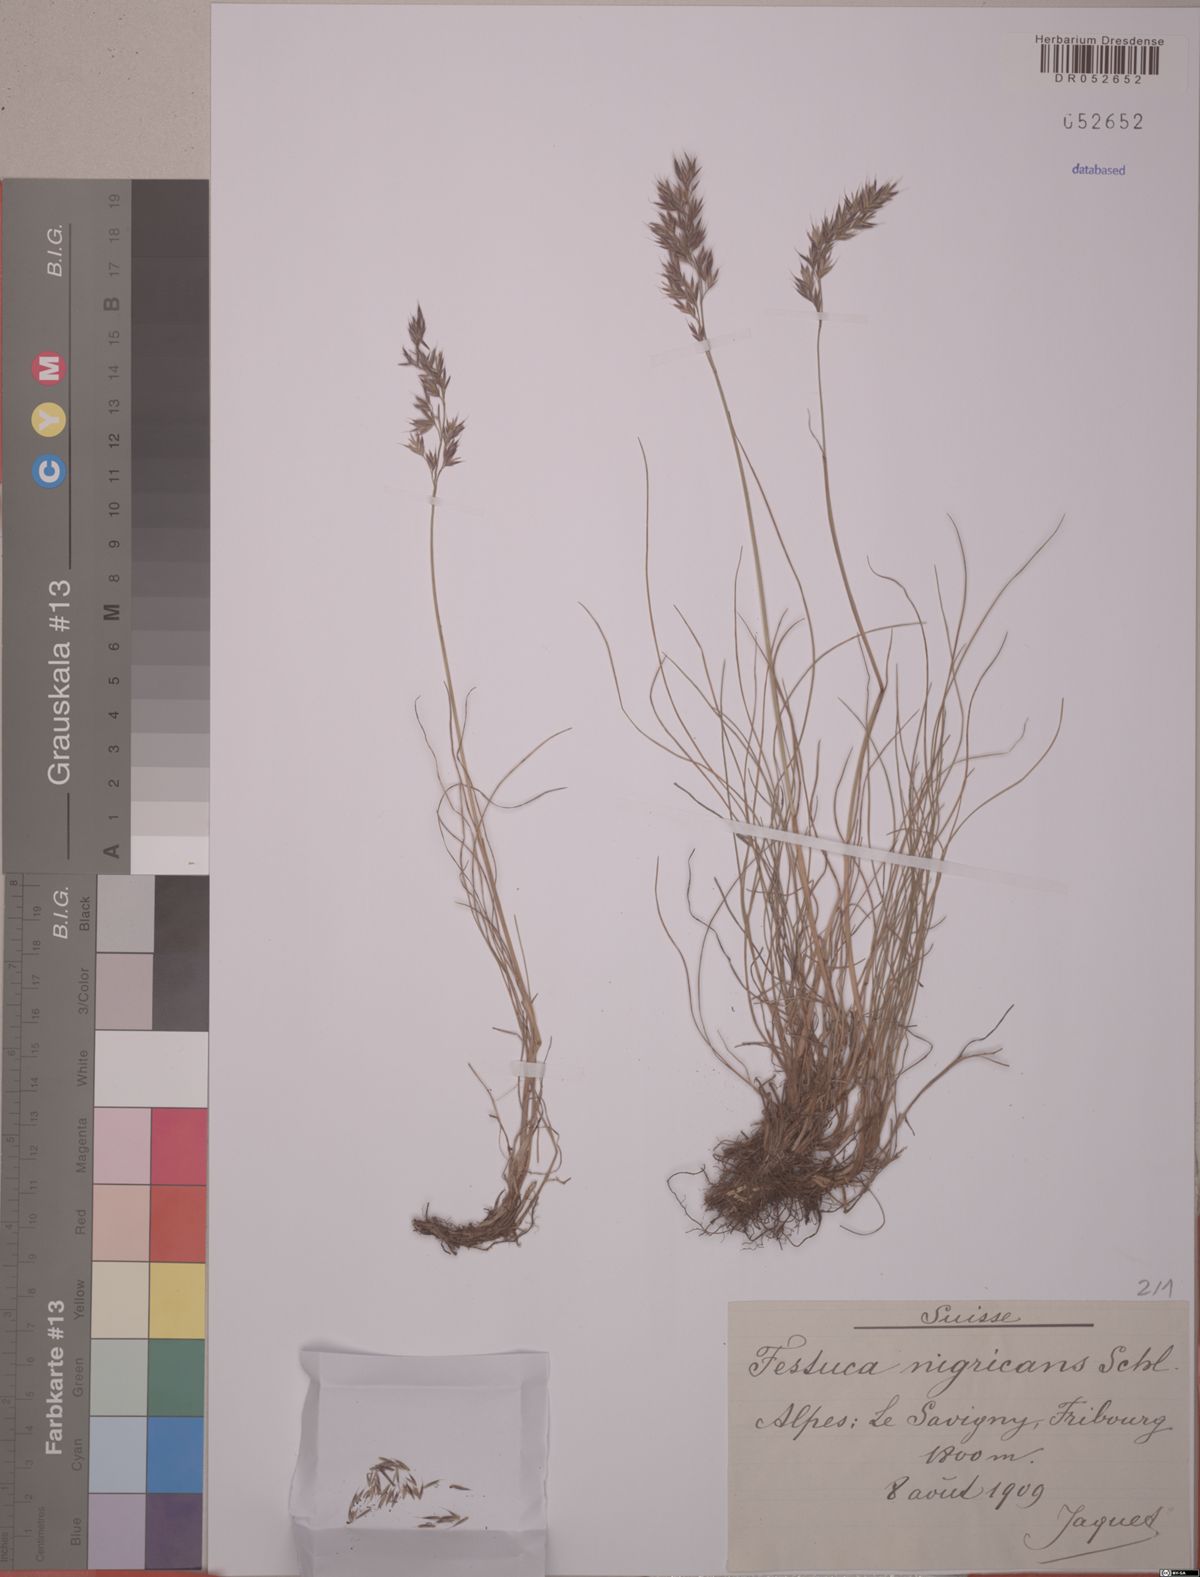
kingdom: Plantae
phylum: Tracheophyta
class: Liliopsida
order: Poales
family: Poaceae
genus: Festuca
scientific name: Festuca violacea
